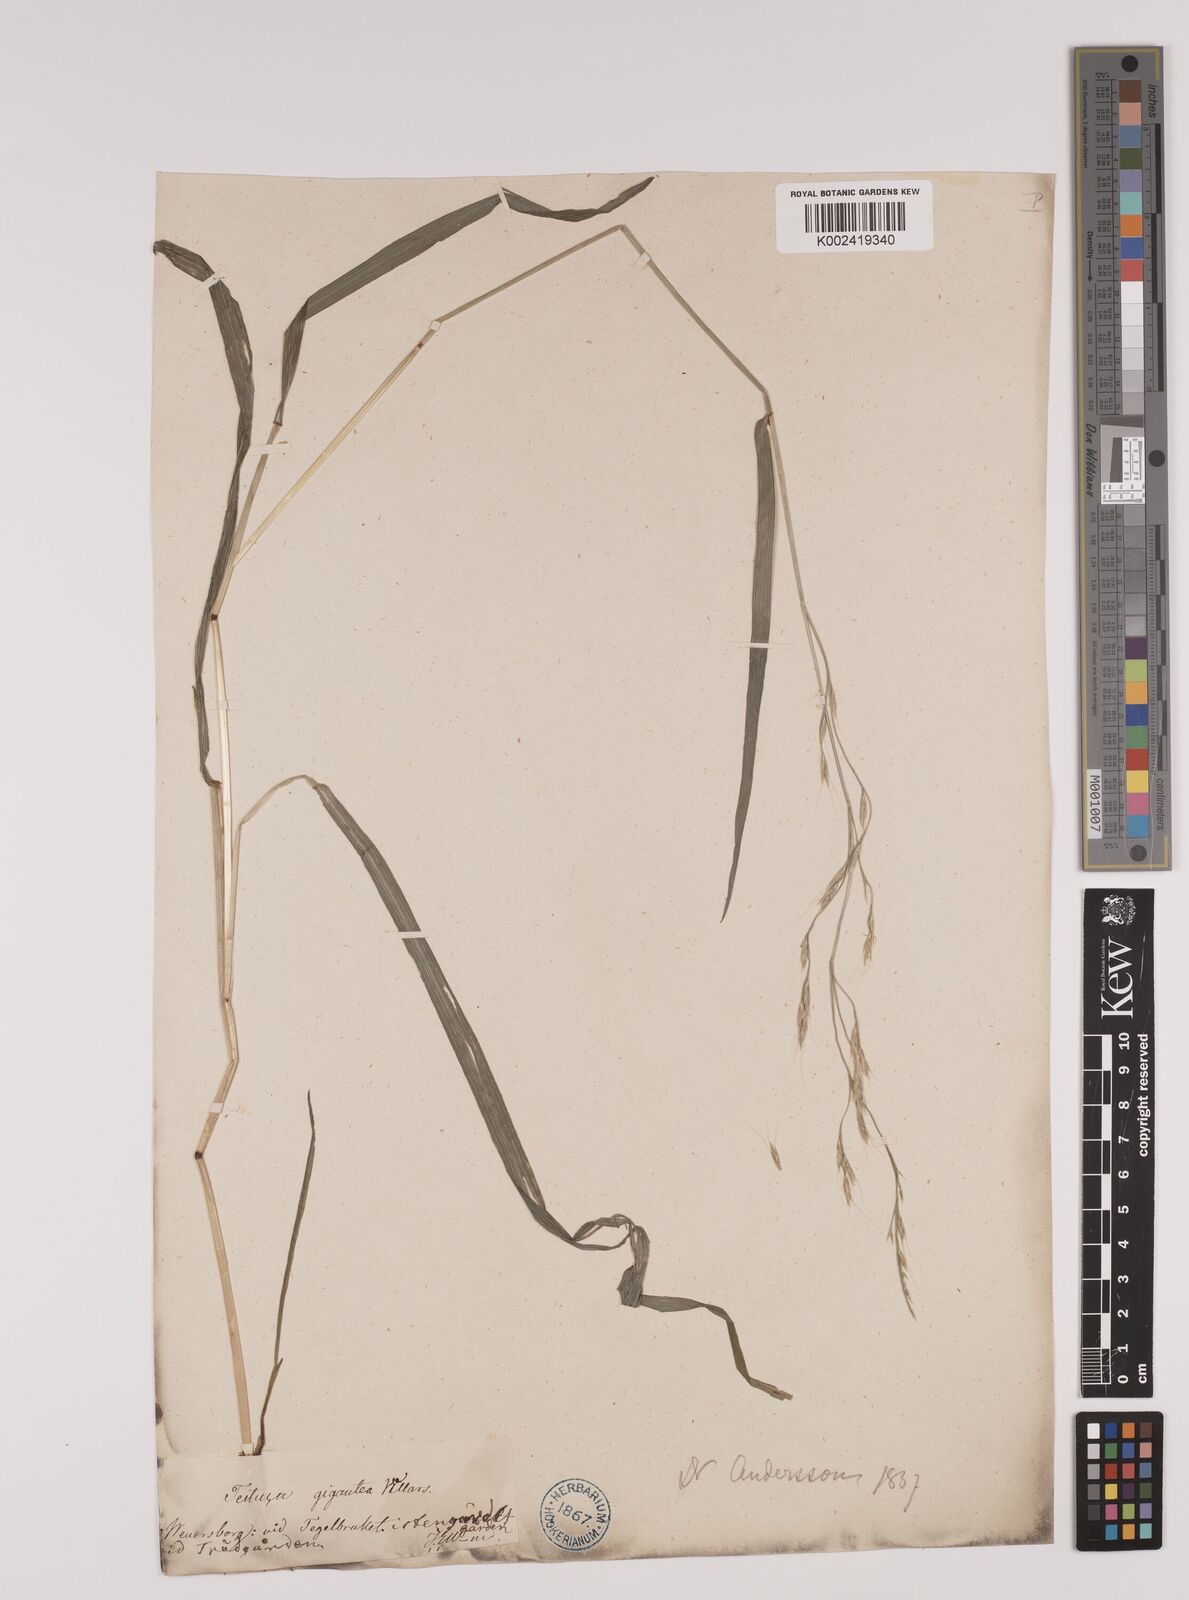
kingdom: Plantae
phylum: Tracheophyta
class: Liliopsida
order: Poales
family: Poaceae
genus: Lolium
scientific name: Lolium giganteum
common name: Giant fescue
